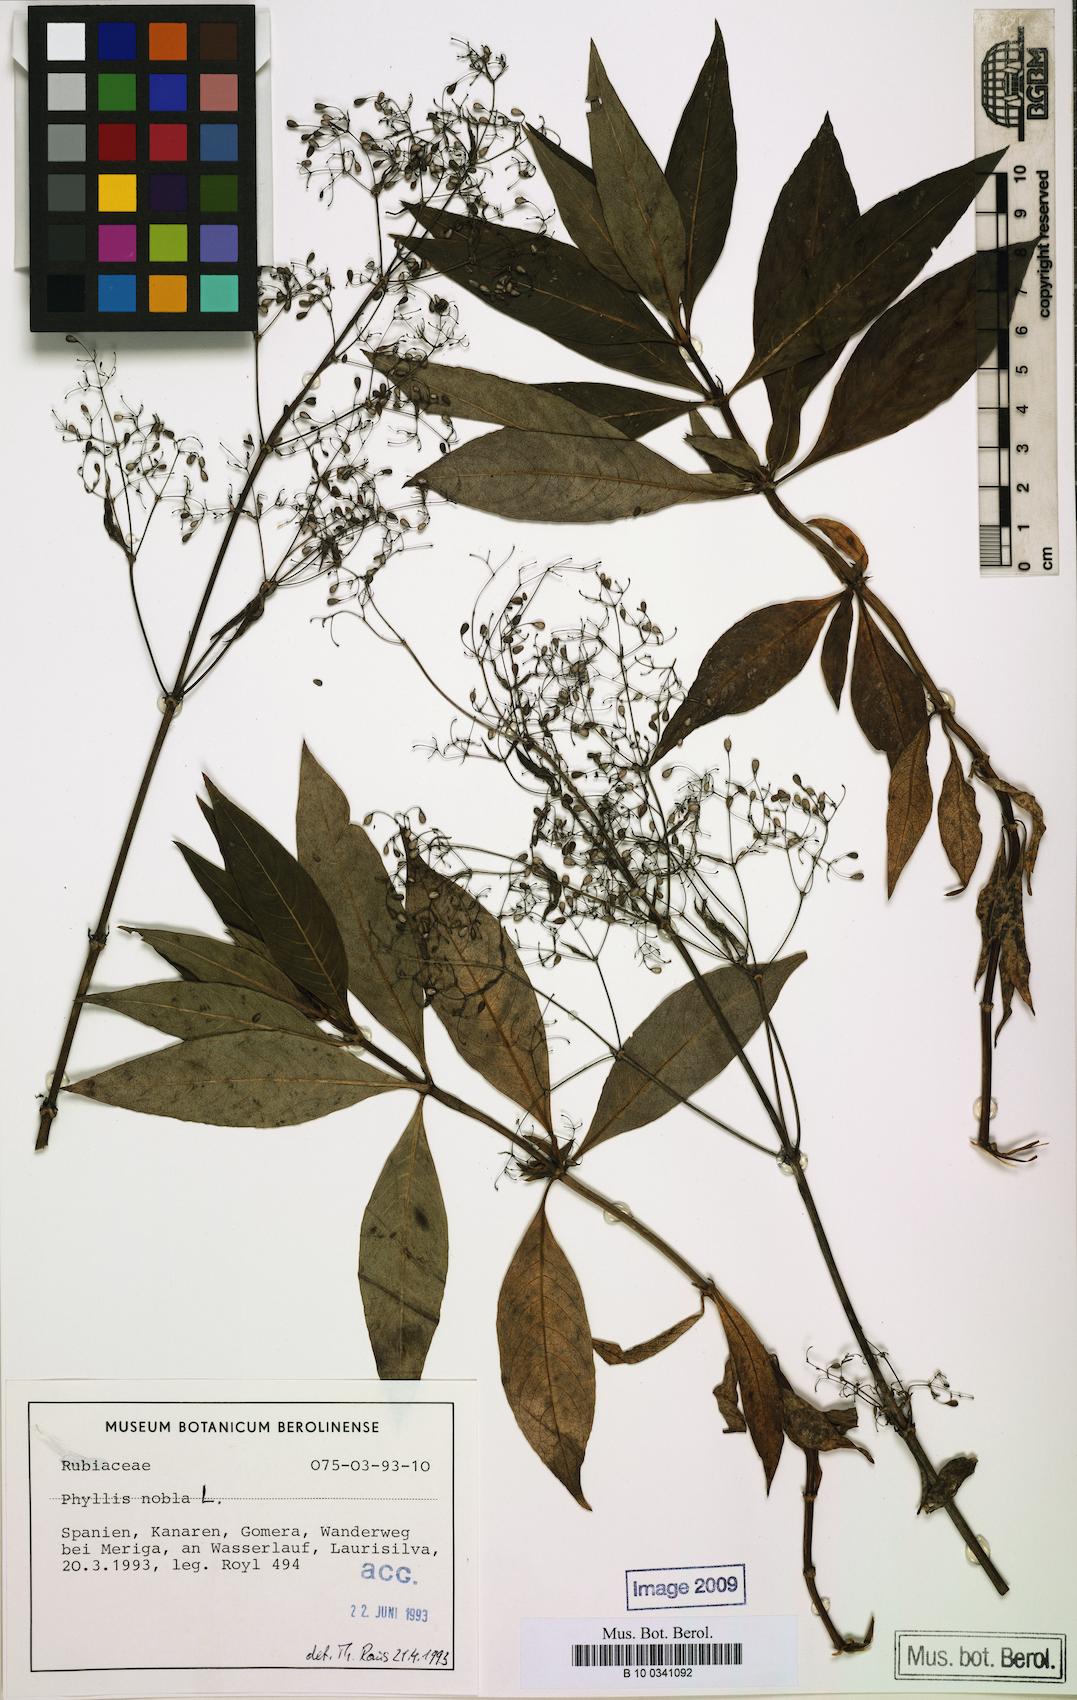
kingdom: Plantae
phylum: Tracheophyta
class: Magnoliopsida
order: Gentianales
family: Rubiaceae
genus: Phyllis
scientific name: Phyllis nobla
